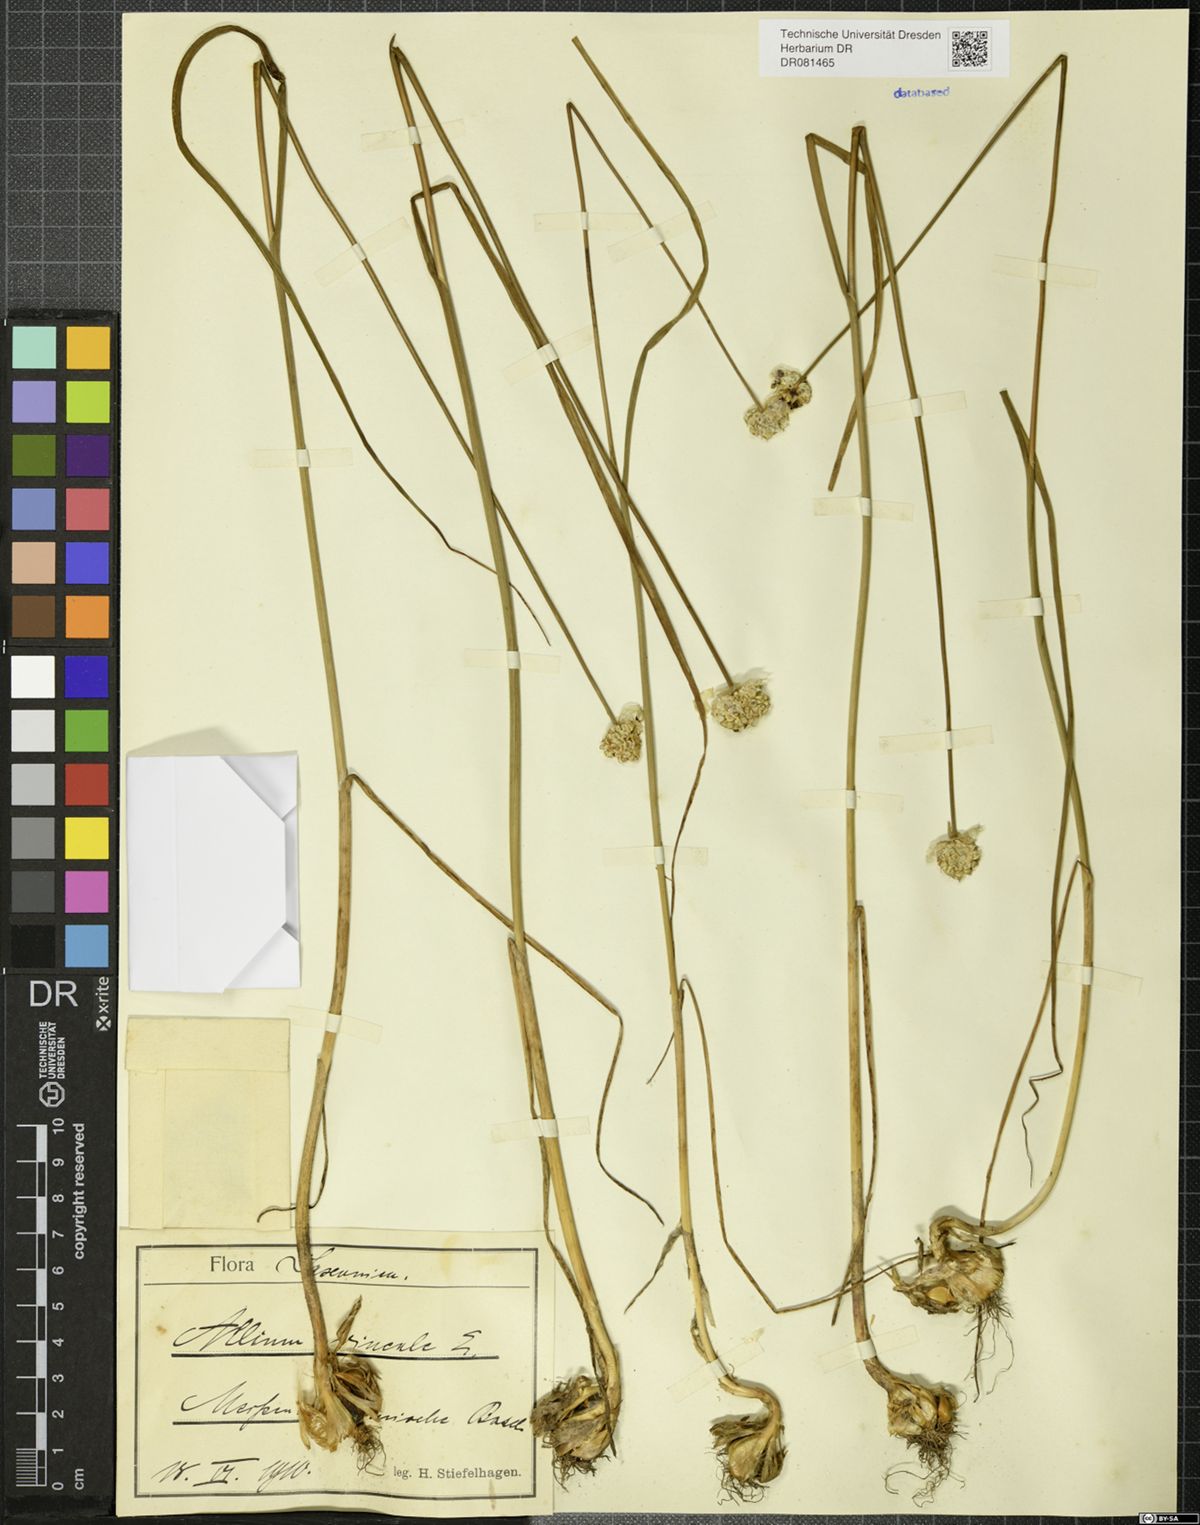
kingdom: Plantae
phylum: Tracheophyta
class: Liliopsida
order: Asparagales
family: Amaryllidaceae
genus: Allium
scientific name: Allium vineale
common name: Crow garlic
